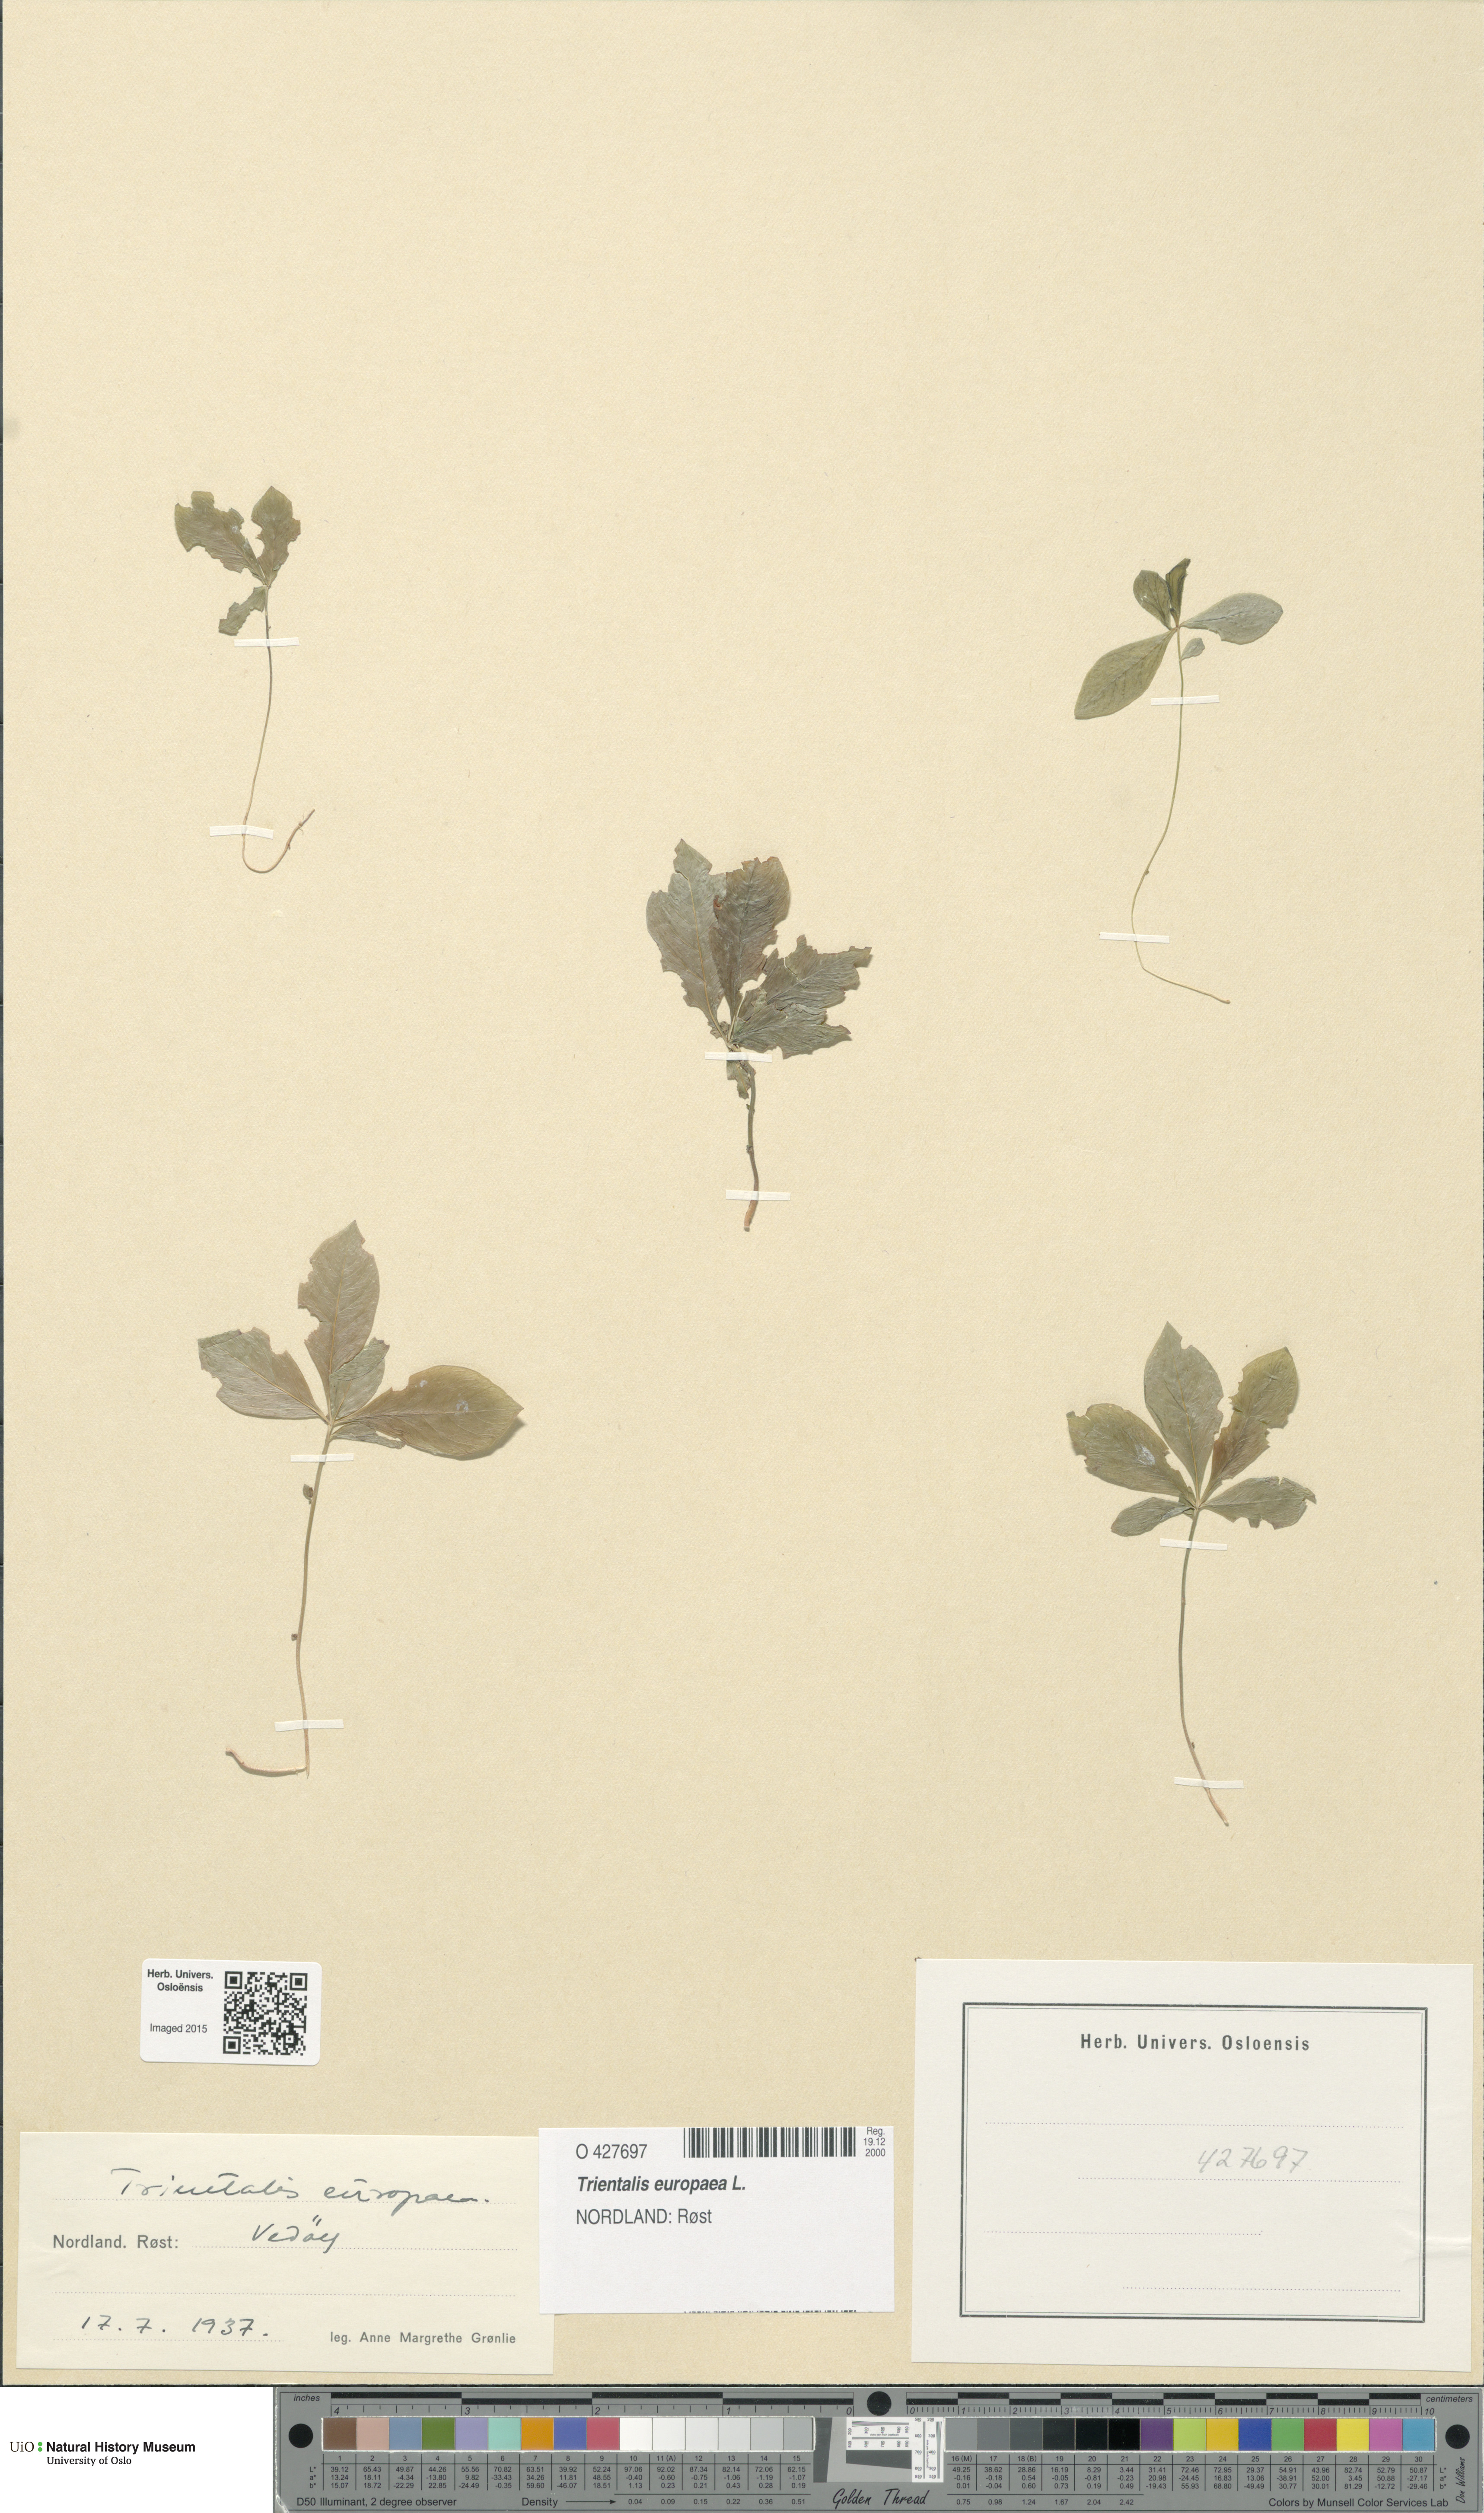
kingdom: Plantae
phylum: Tracheophyta
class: Magnoliopsida
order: Ericales
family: Primulaceae
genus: Lysimachia
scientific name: Lysimachia europaea
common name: Arctic starflower
